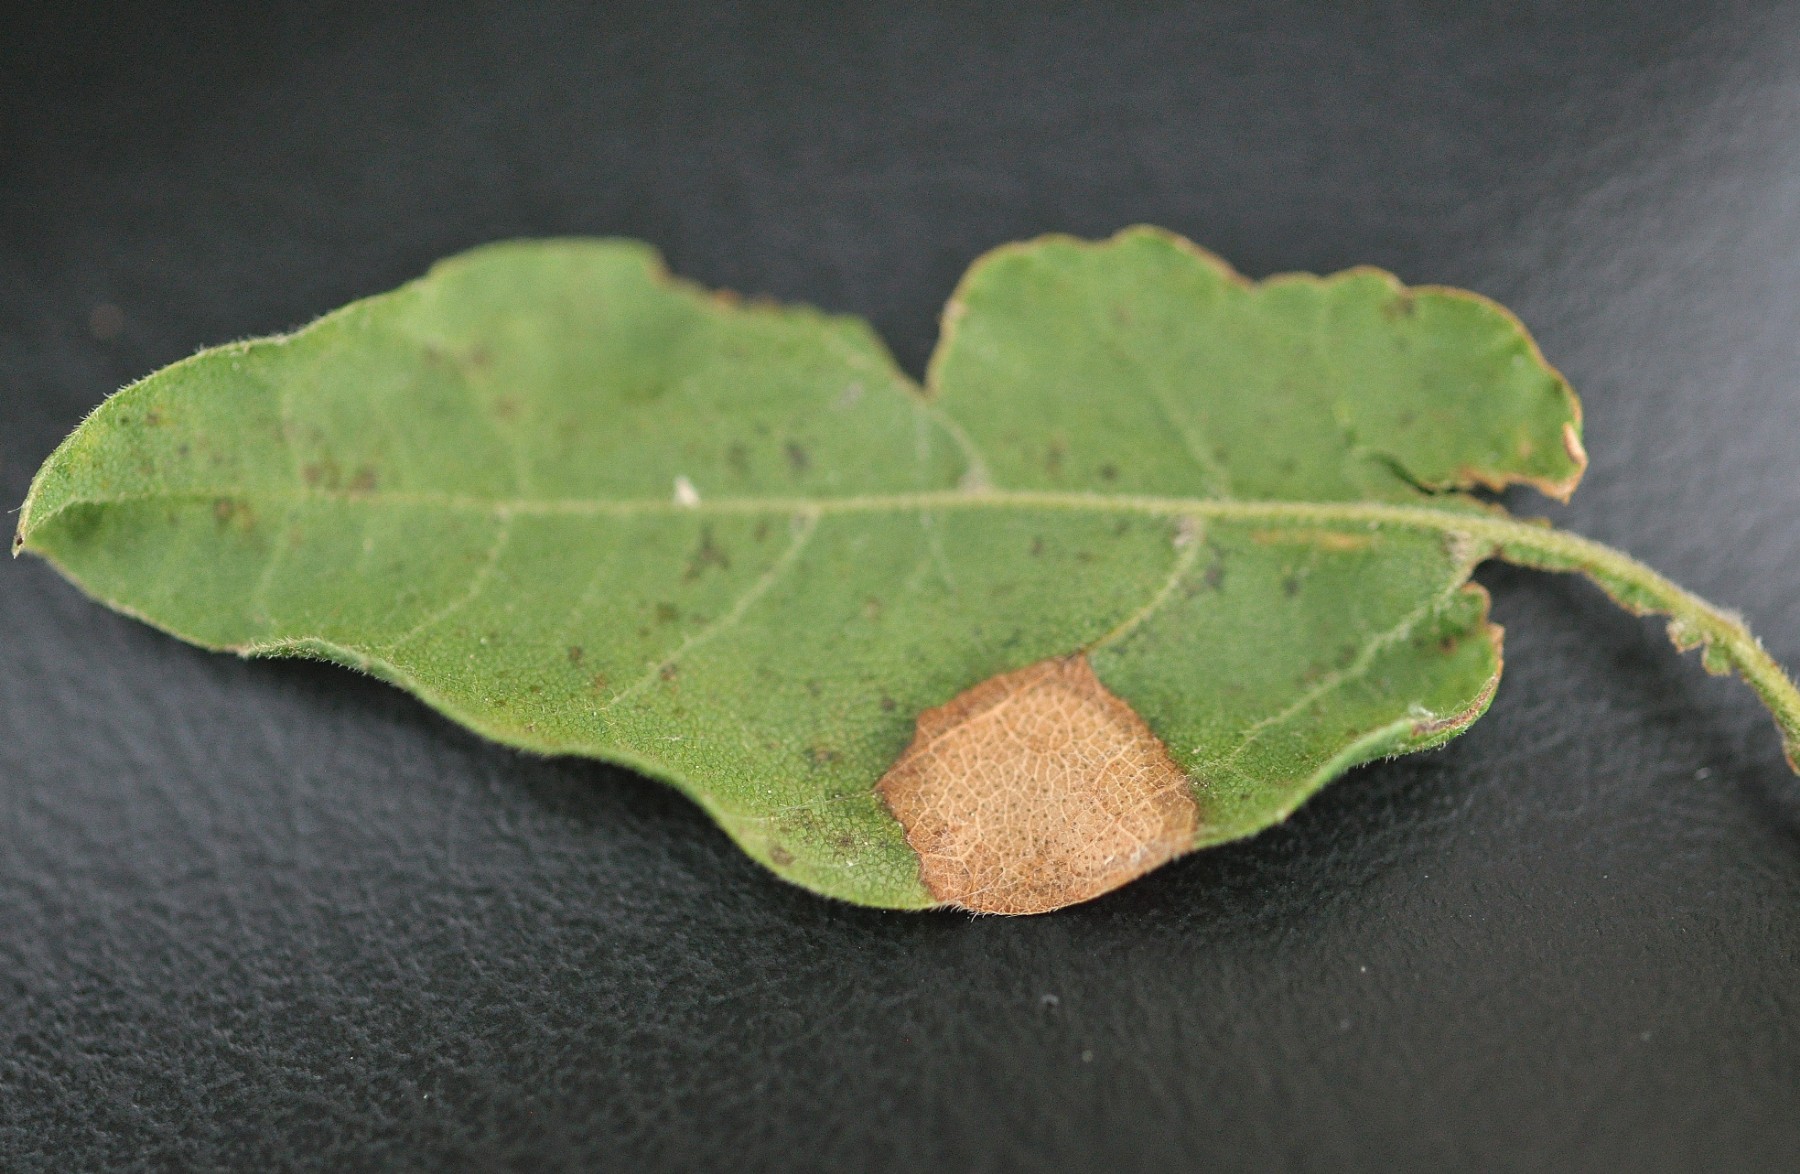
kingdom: Fungi
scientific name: Fungi
